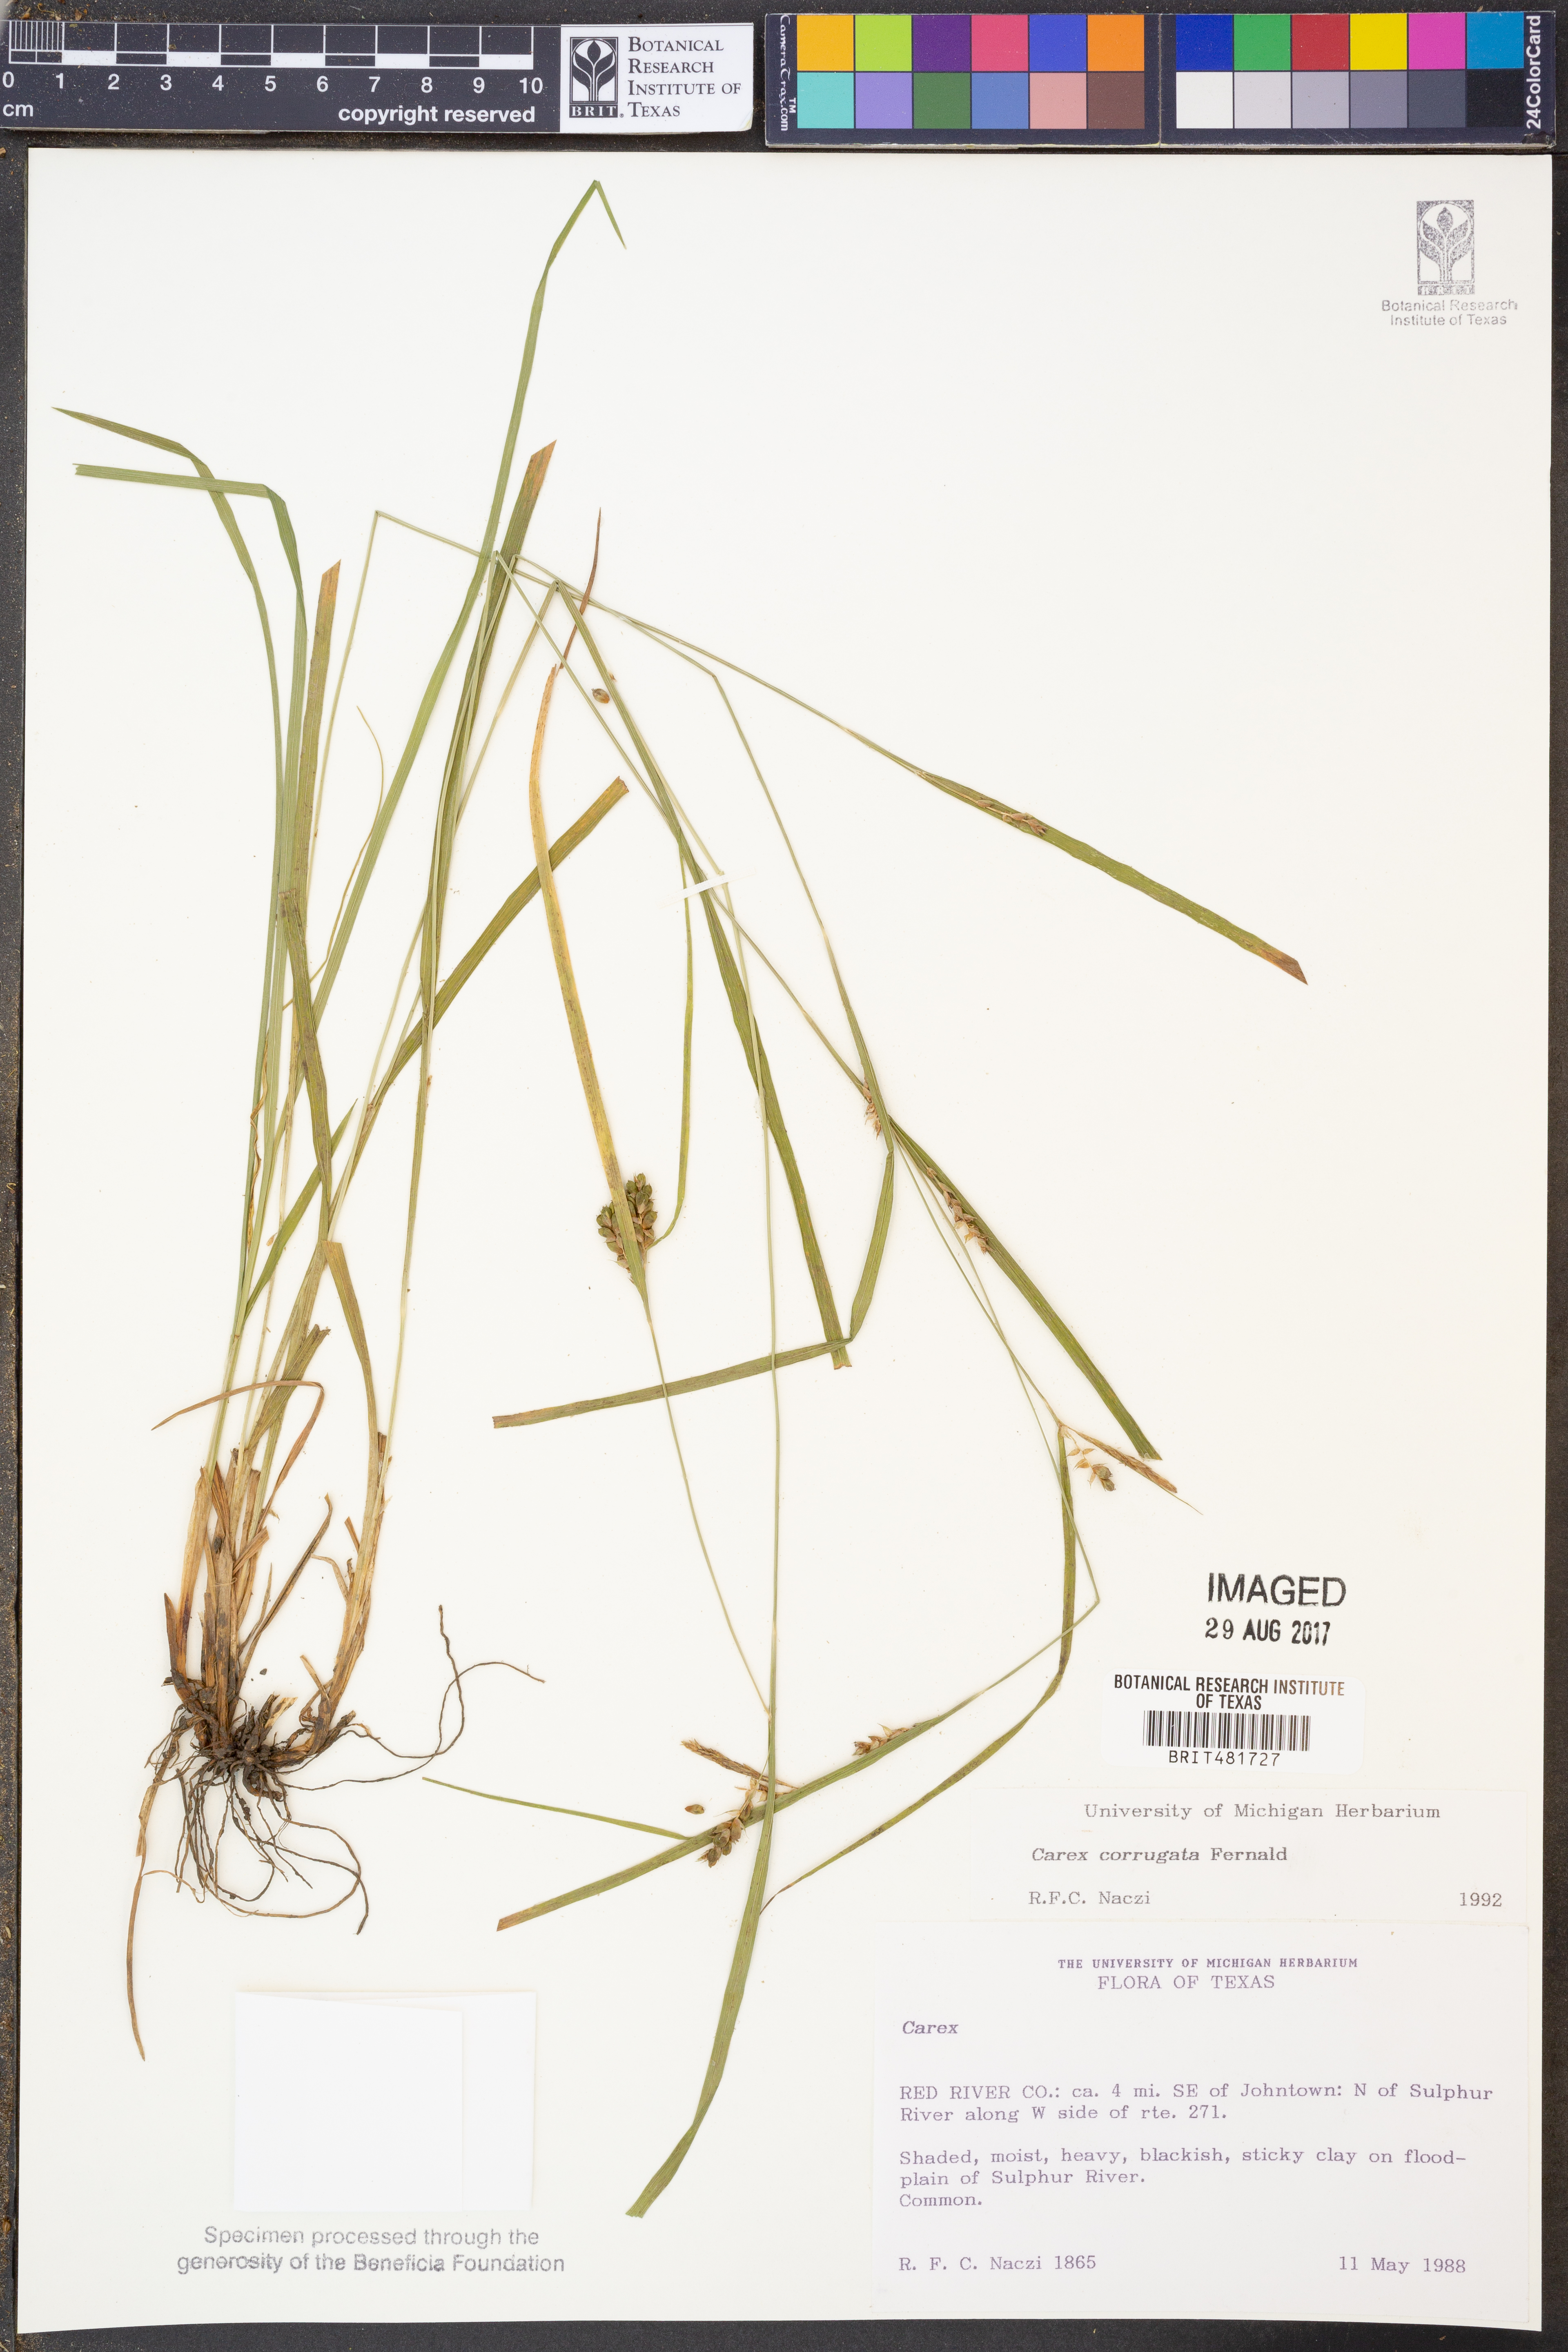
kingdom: Plantae
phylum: Tracheophyta
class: Liliopsida
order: Poales
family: Cyperaceae
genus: Carex
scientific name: Carex corrugata
